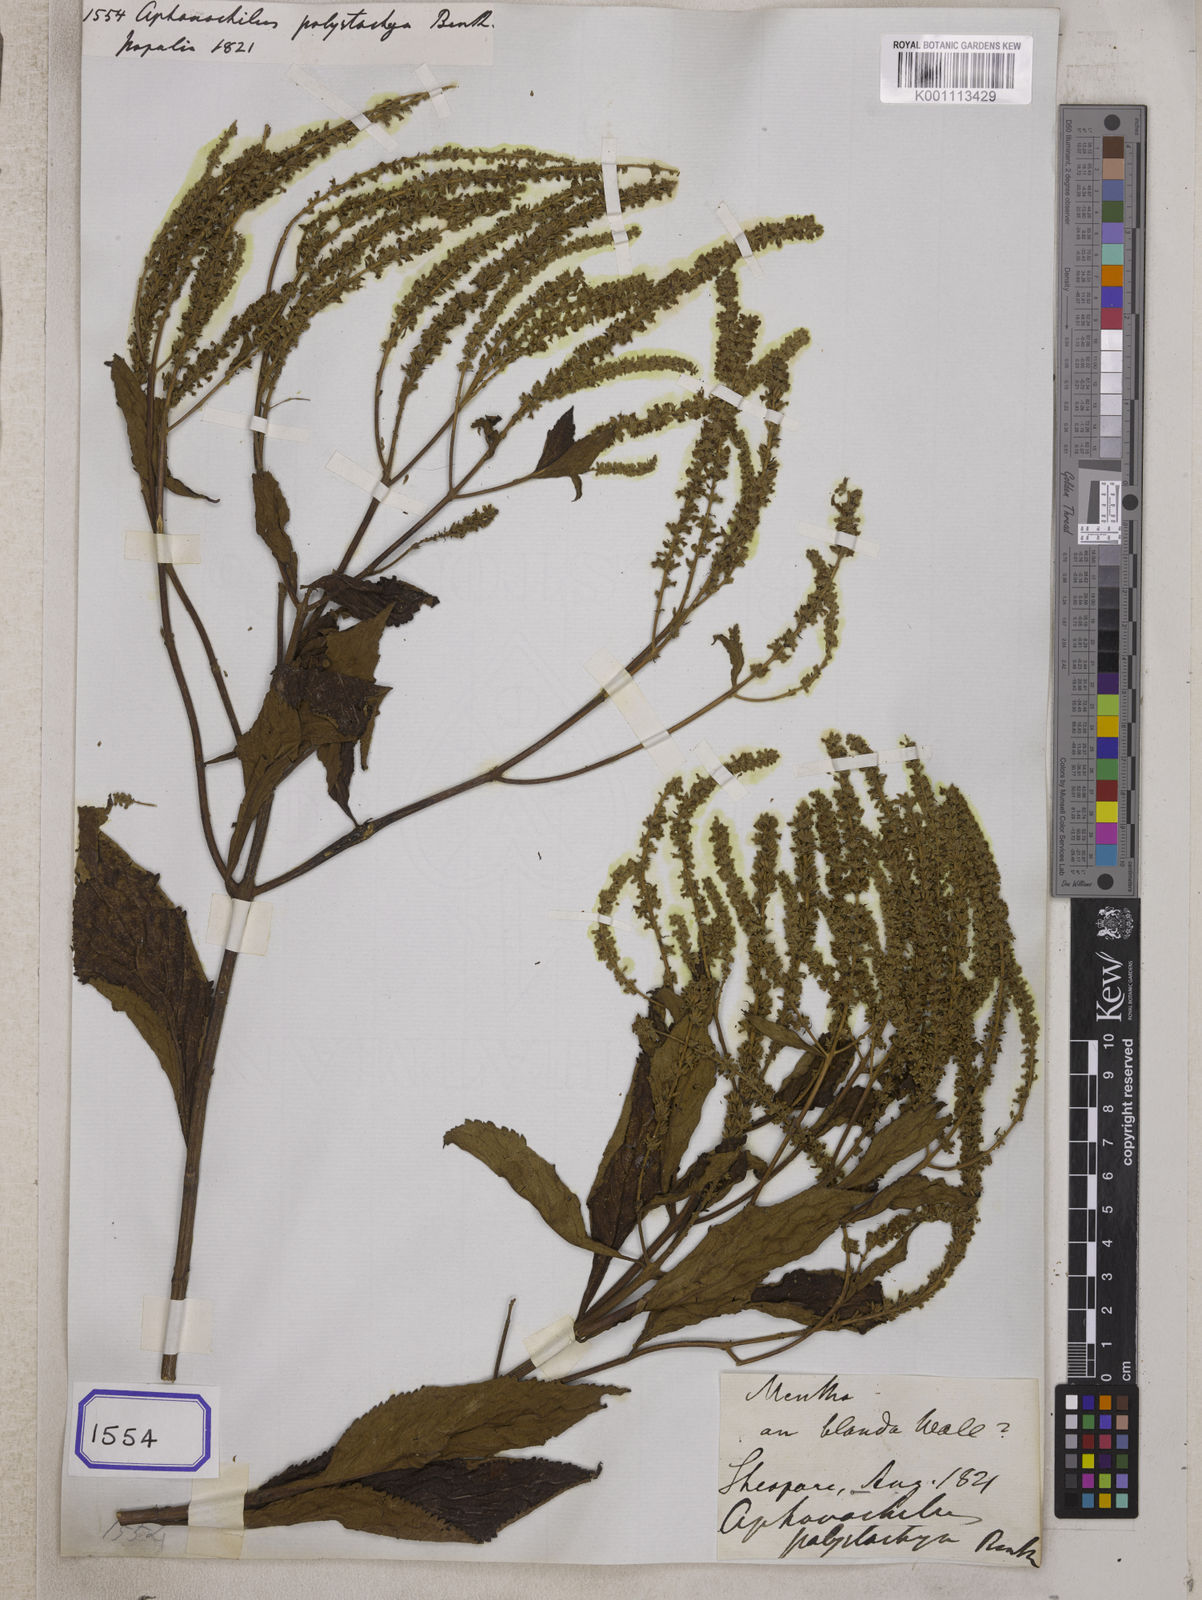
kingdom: Plantae
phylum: Tracheophyta
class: Magnoliopsida
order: Lamiales
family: Lamiaceae
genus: Elsholtzia
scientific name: Elsholtzia fruticosa
